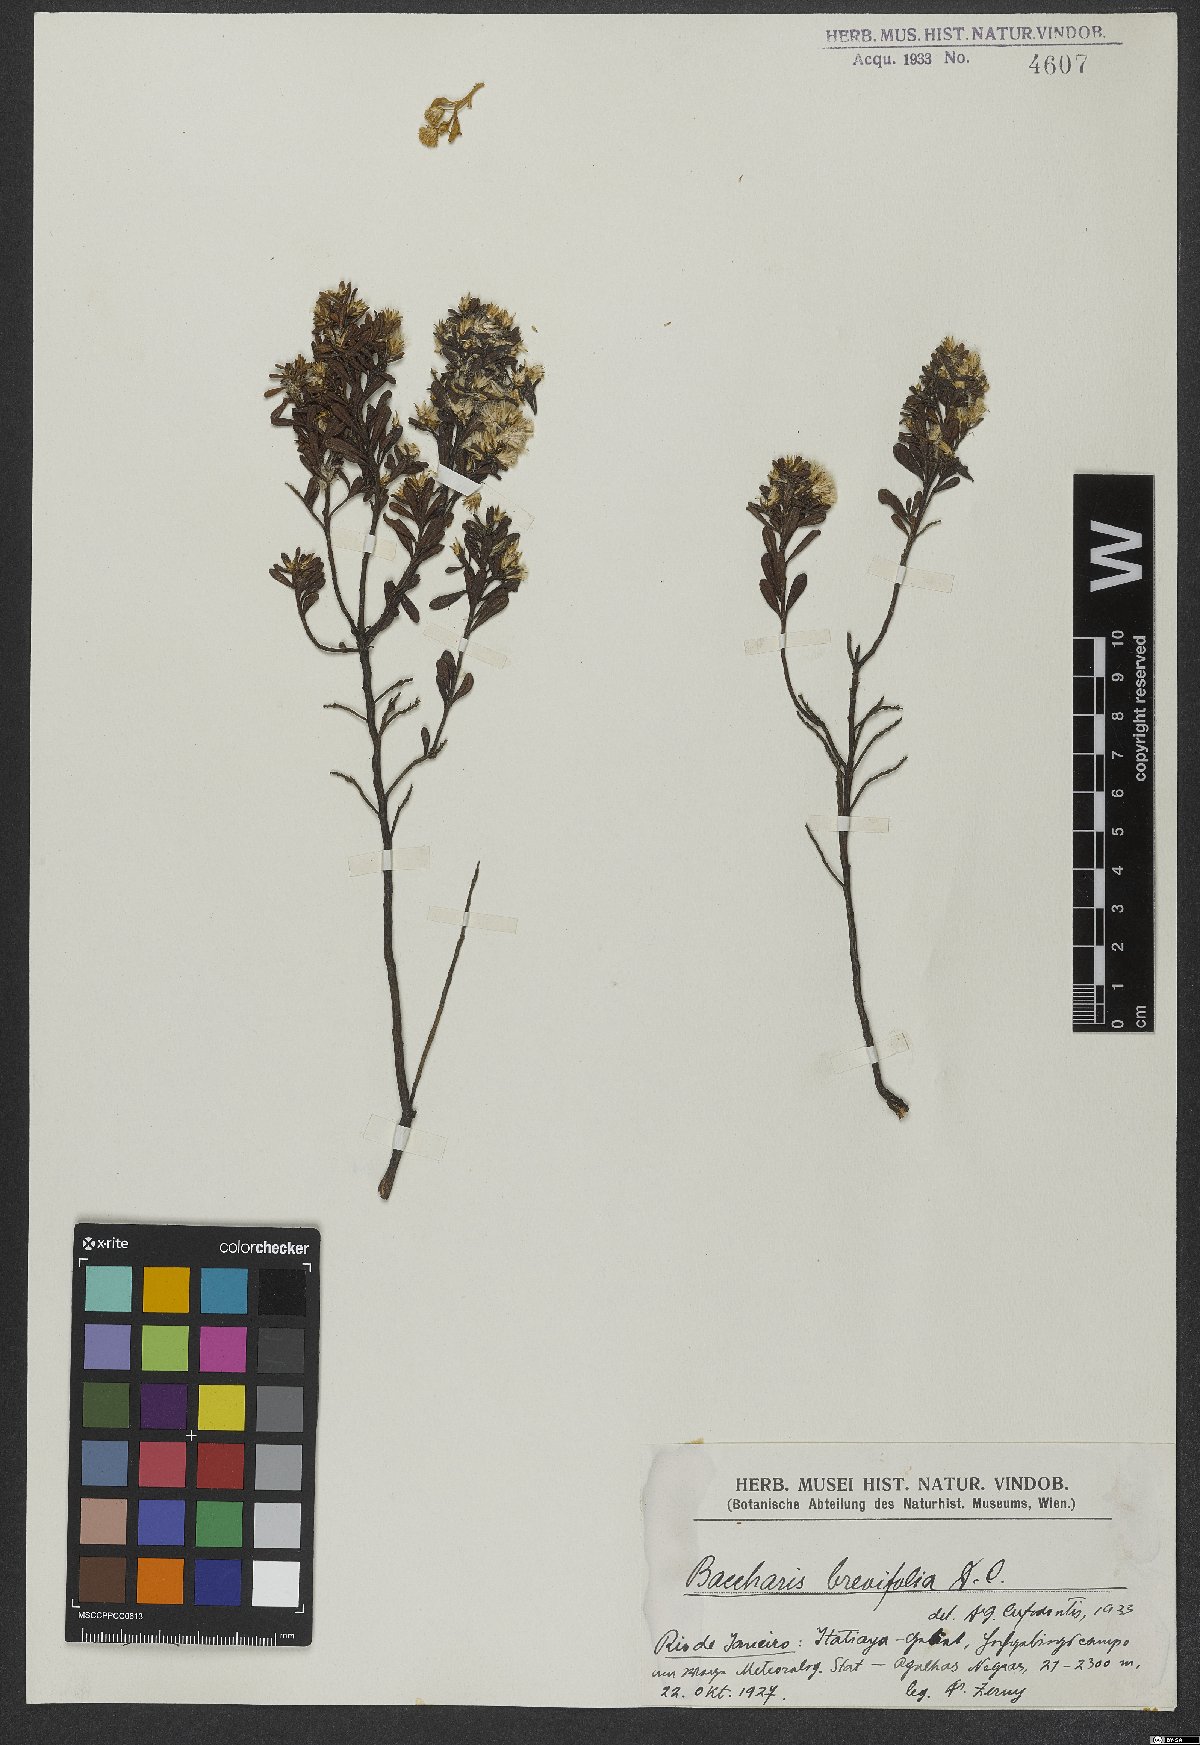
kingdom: Plantae
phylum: Tracheophyta
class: Magnoliopsida
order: Asterales
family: Asteraceae
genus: Baccharis
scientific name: Baccharis brevifolia
